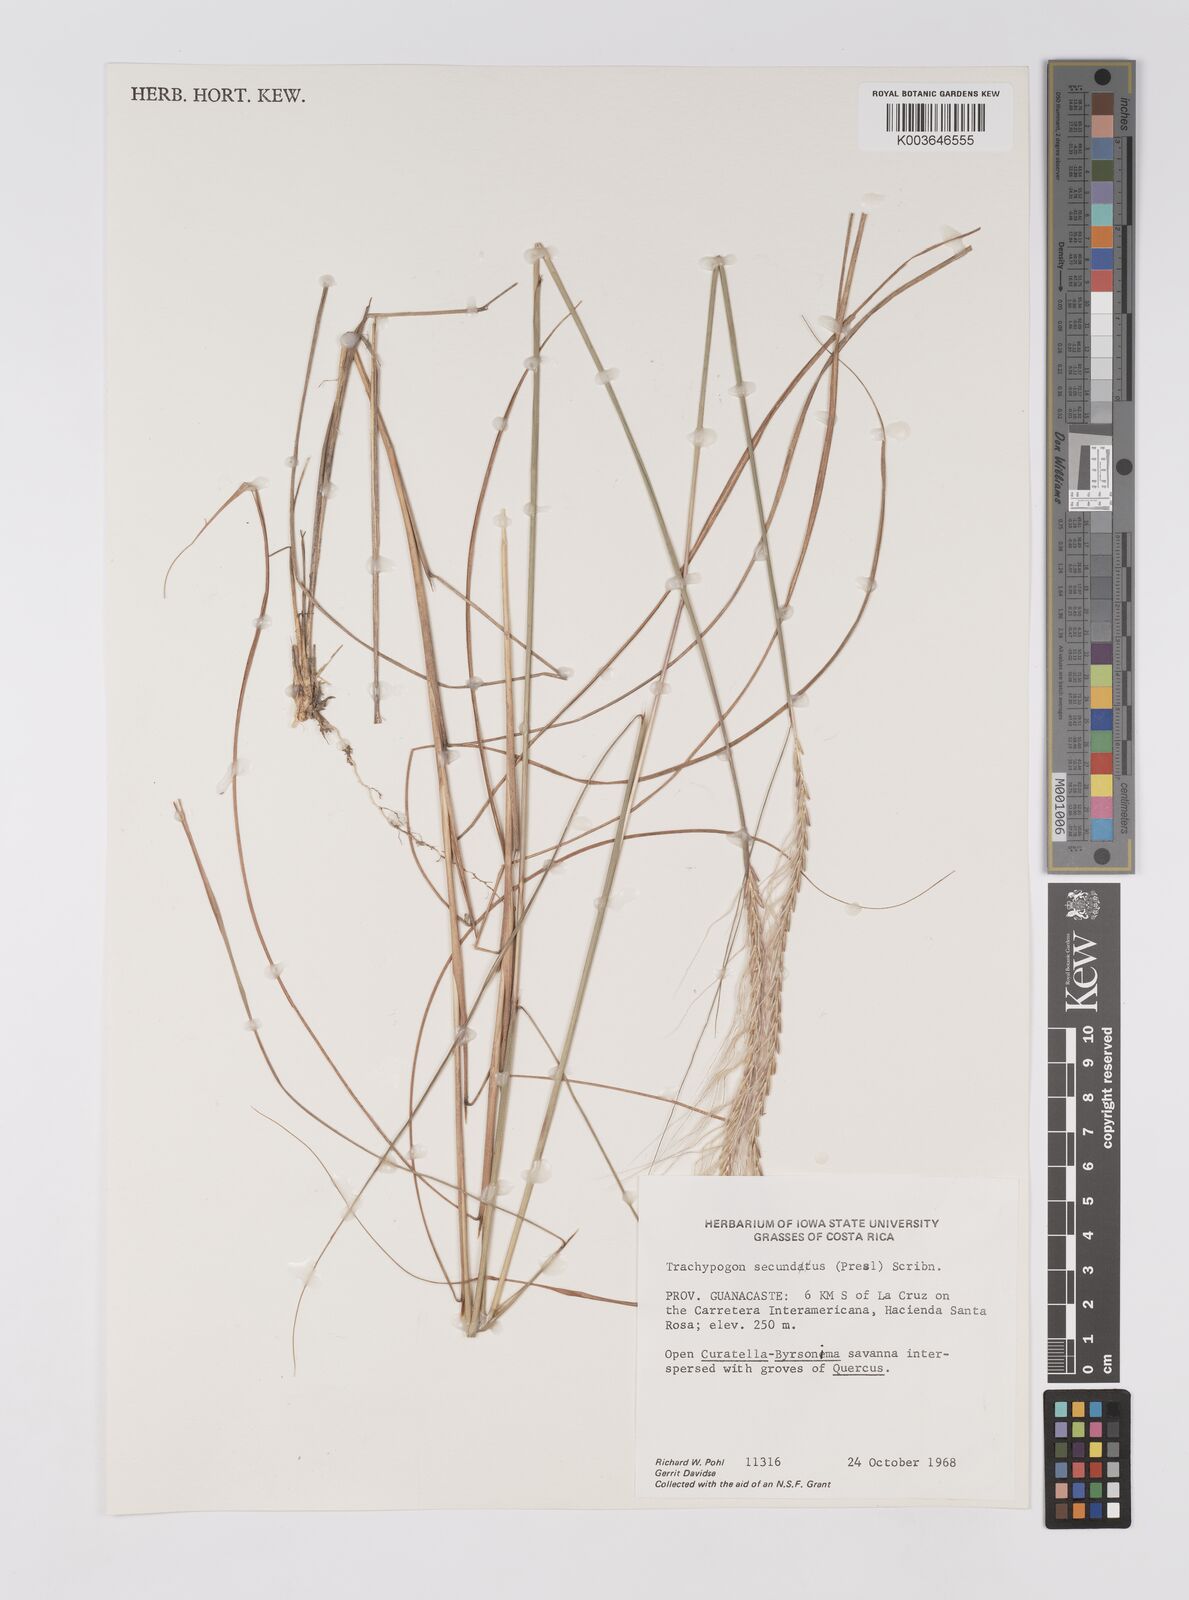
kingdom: Plantae
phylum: Tracheophyta
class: Liliopsida
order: Poales
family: Poaceae
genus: Trachypogon
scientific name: Trachypogon spicatus
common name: Crinkle-awn
